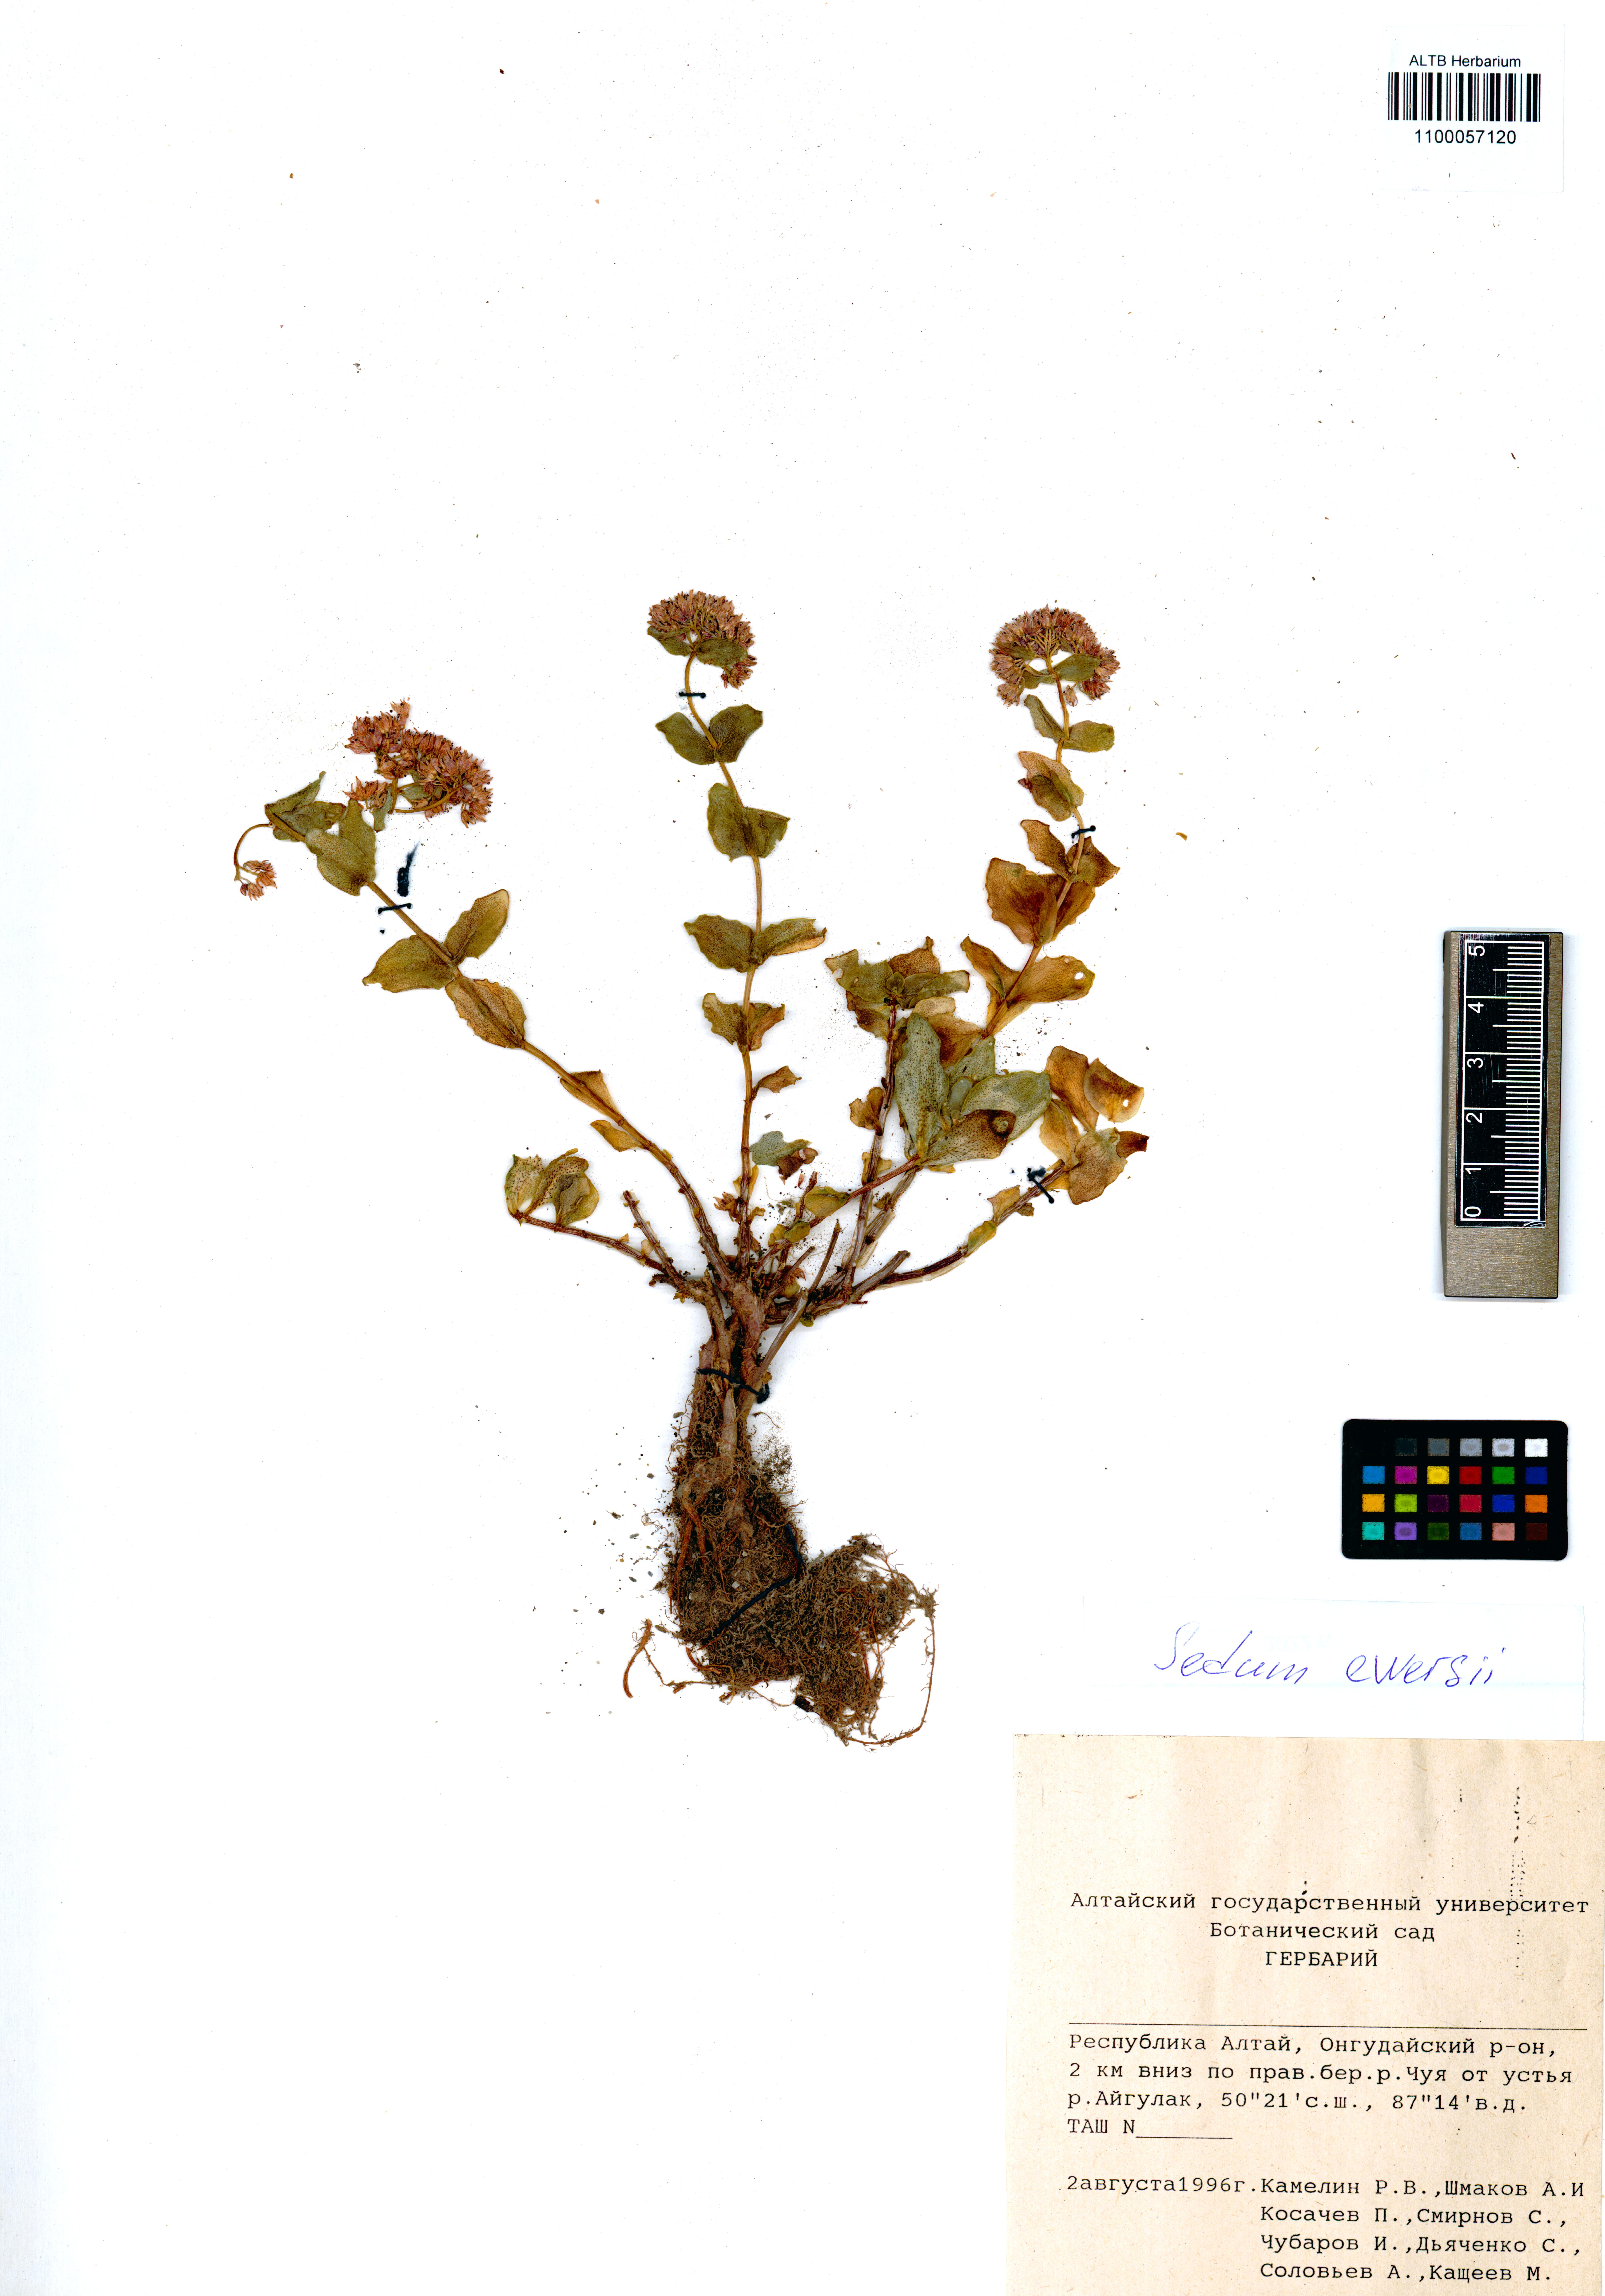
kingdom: Plantae
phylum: Tracheophyta
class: Magnoliopsida
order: Saxifragales
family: Crassulaceae
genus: Hylotelephium
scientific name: Hylotelephium ewersii
